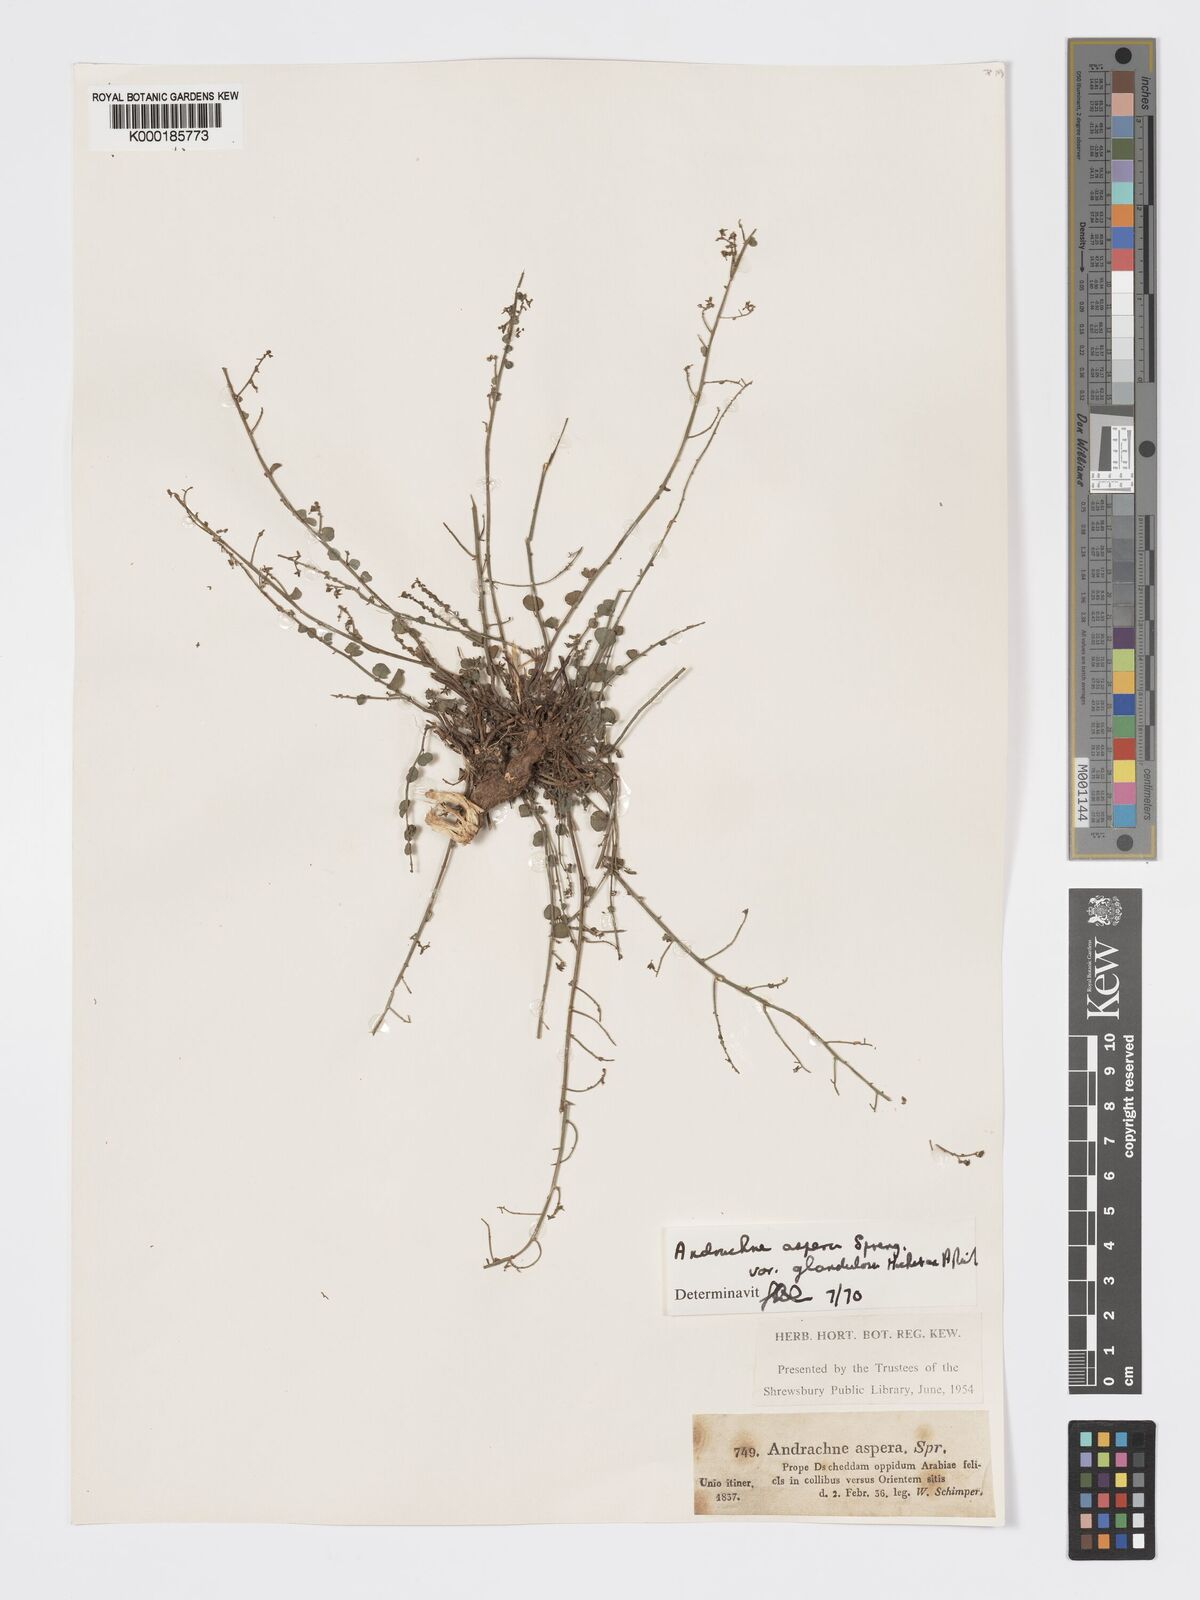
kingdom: Plantae
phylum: Tracheophyta
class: Magnoliopsida
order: Malpighiales
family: Phyllanthaceae
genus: Andrachne
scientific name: Andrachne aspera
